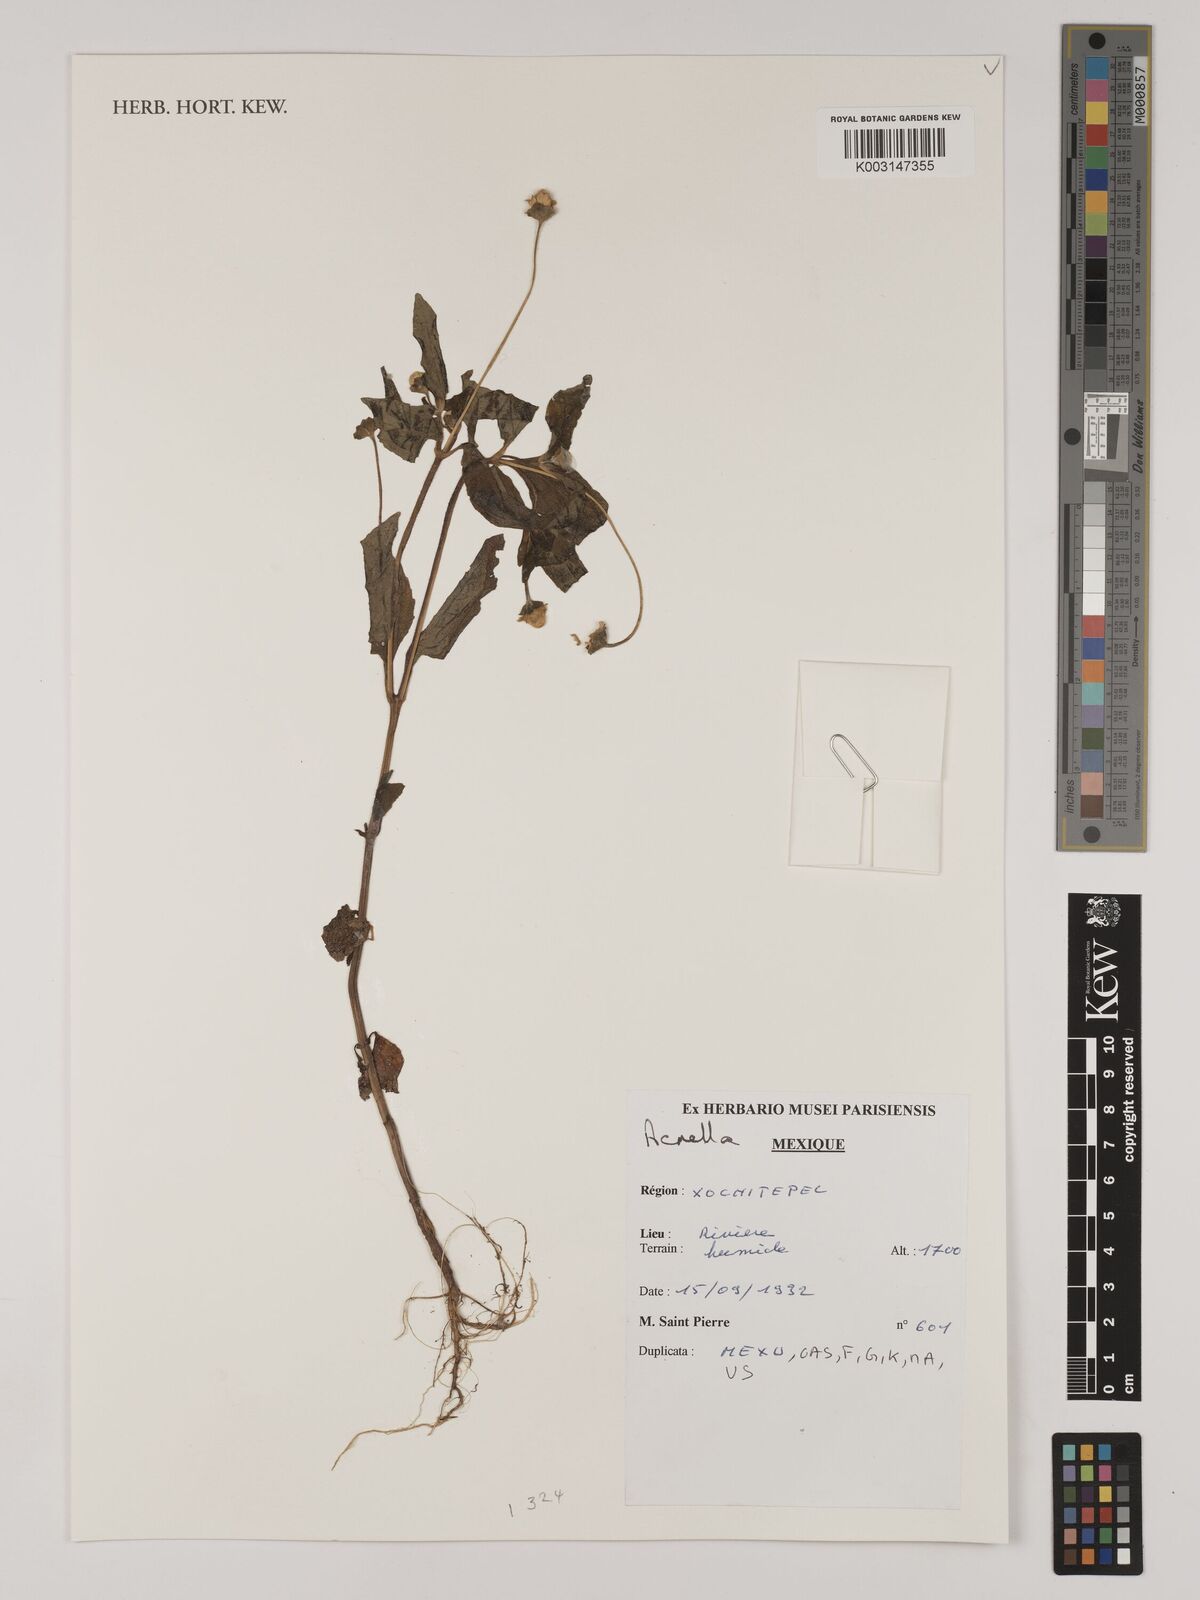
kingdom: Plantae
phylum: Tracheophyta
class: Magnoliopsida
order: Asterales
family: Asteraceae
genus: Acmella
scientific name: Acmella
